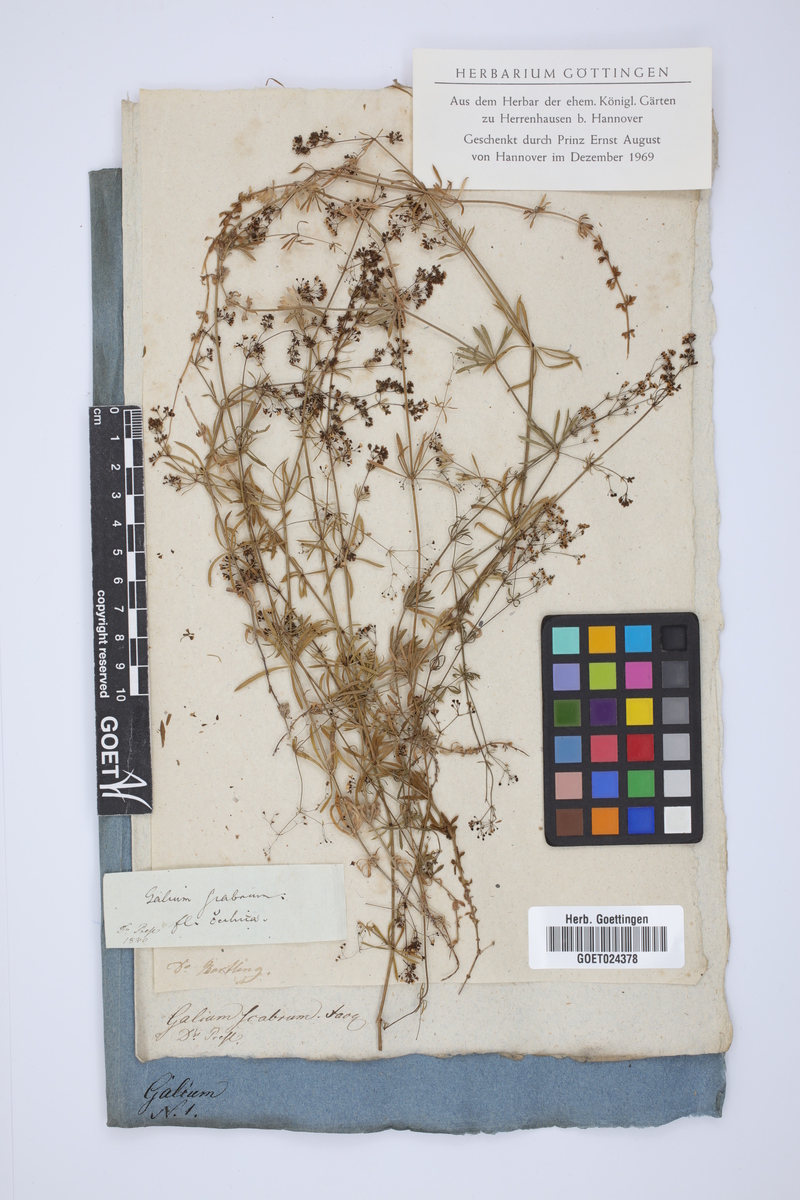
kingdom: Plantae
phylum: Tracheophyta
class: Magnoliopsida
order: Gentianales
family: Rubiaceae
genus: Galium
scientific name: Galium pumilum
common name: Slender bedstraw
